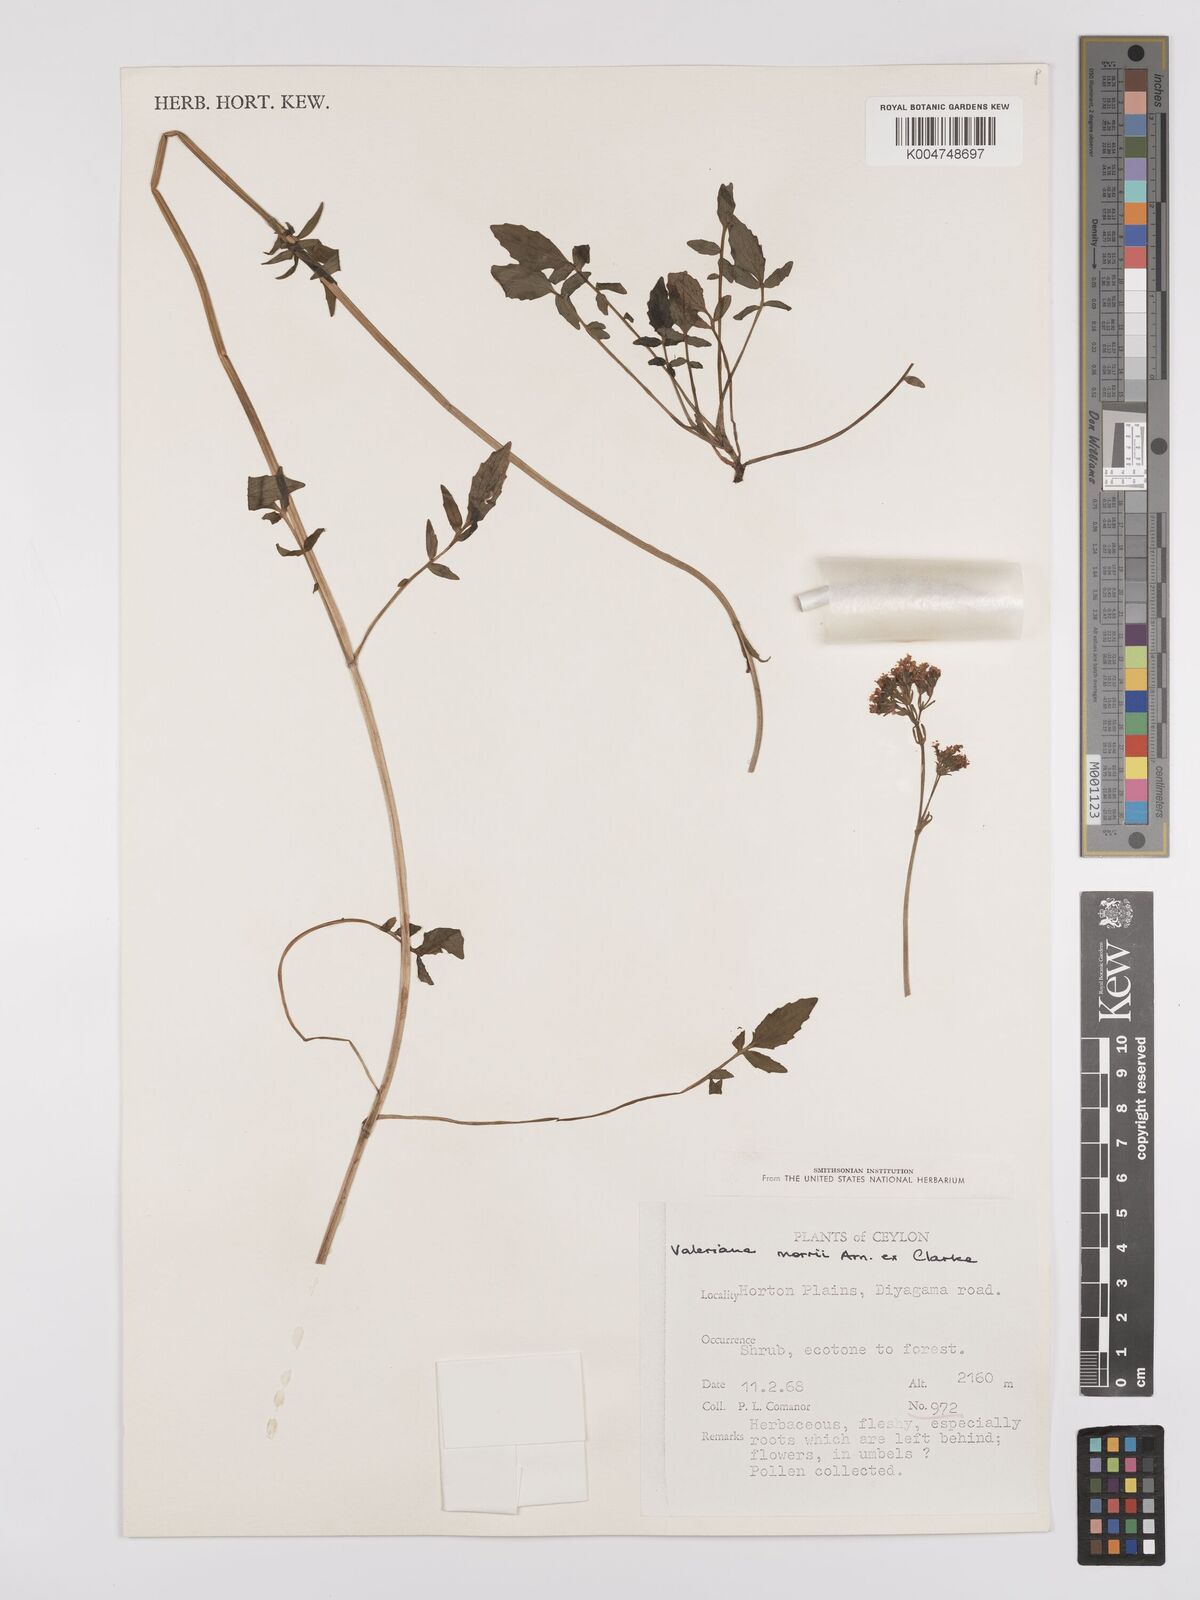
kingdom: Plantae
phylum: Tracheophyta
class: Magnoliopsida
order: Dipsacales
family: Caprifoliaceae
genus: Valeriana
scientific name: Valeriana moonii
